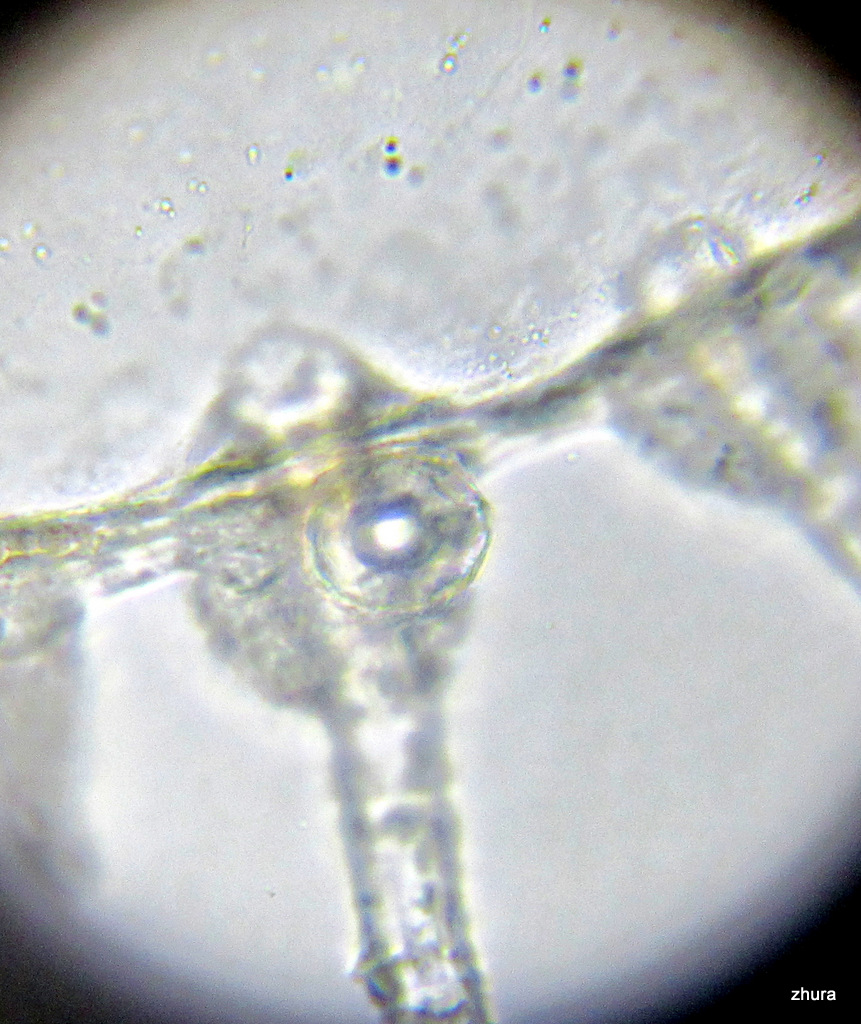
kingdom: Animalia
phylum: Cnidaria
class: Hydrozoa
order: Leptothecata
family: Campanulariidae
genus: Obelia
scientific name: Obelia longissima
